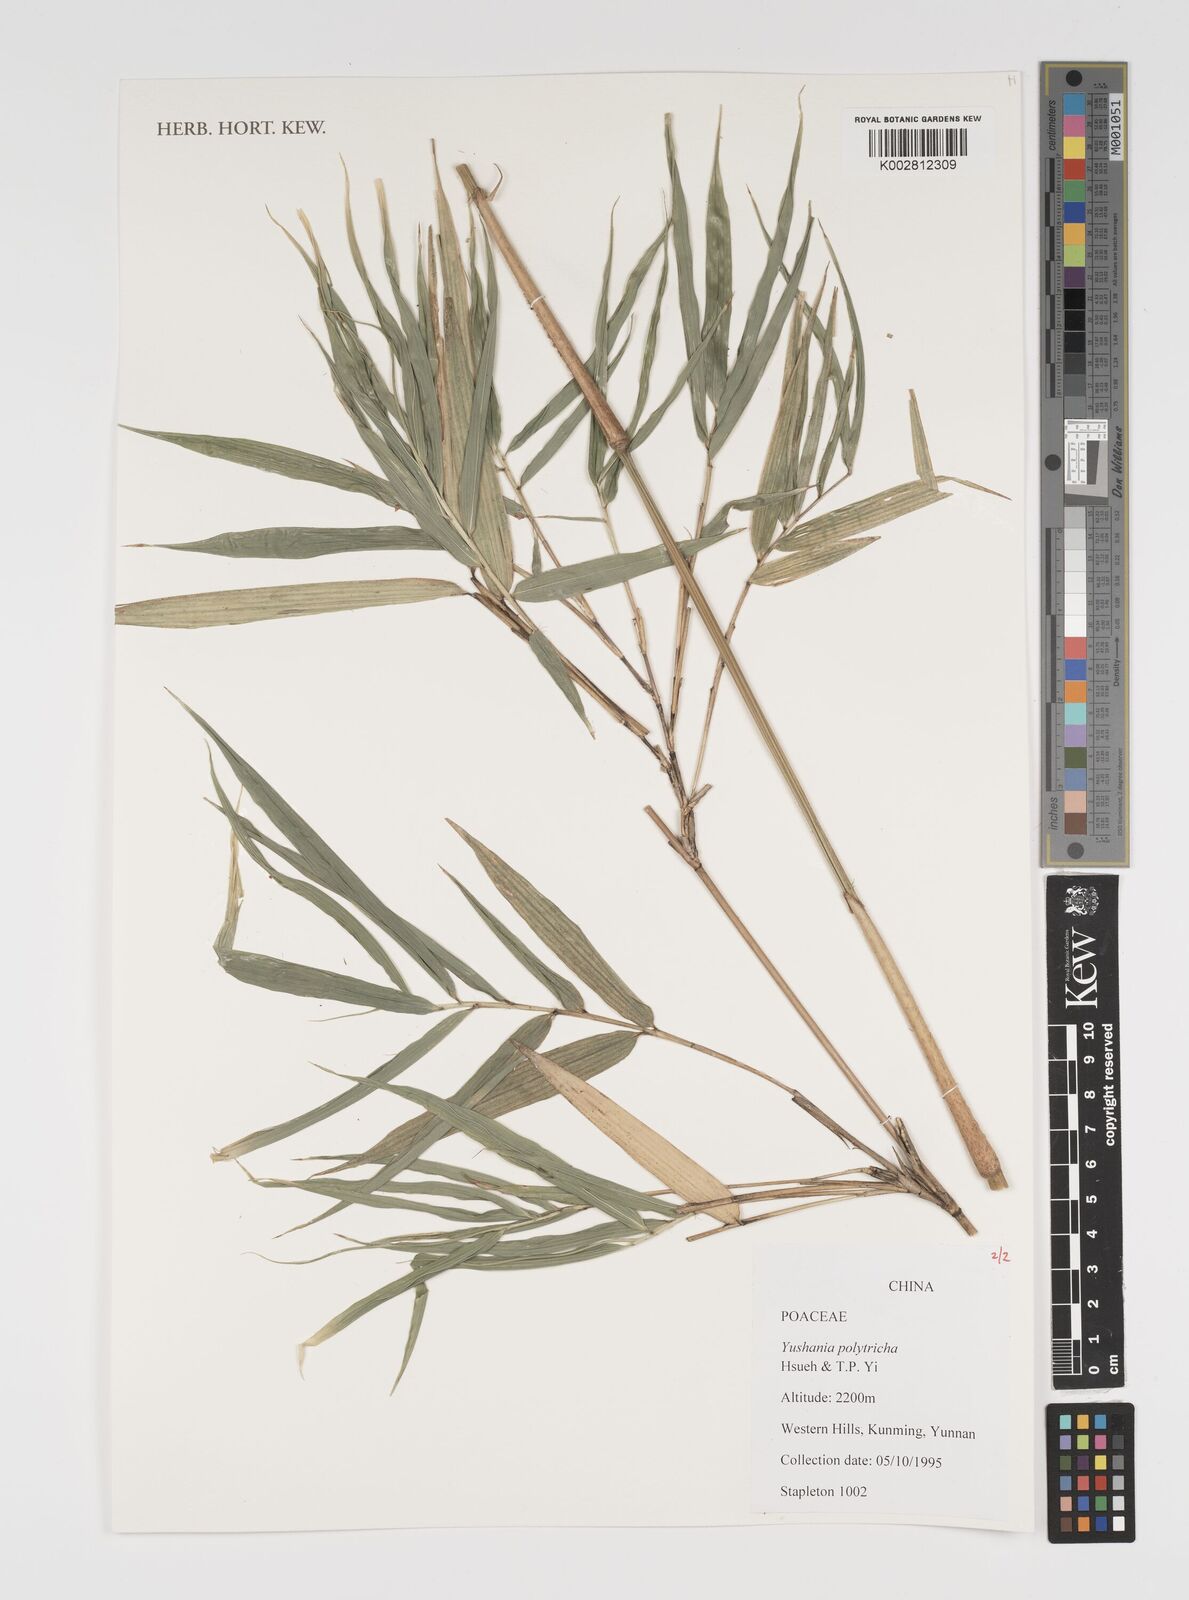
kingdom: Plantae
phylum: Tracheophyta
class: Liliopsida
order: Poales
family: Poaceae
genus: Yushania
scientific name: Yushania polytricha
